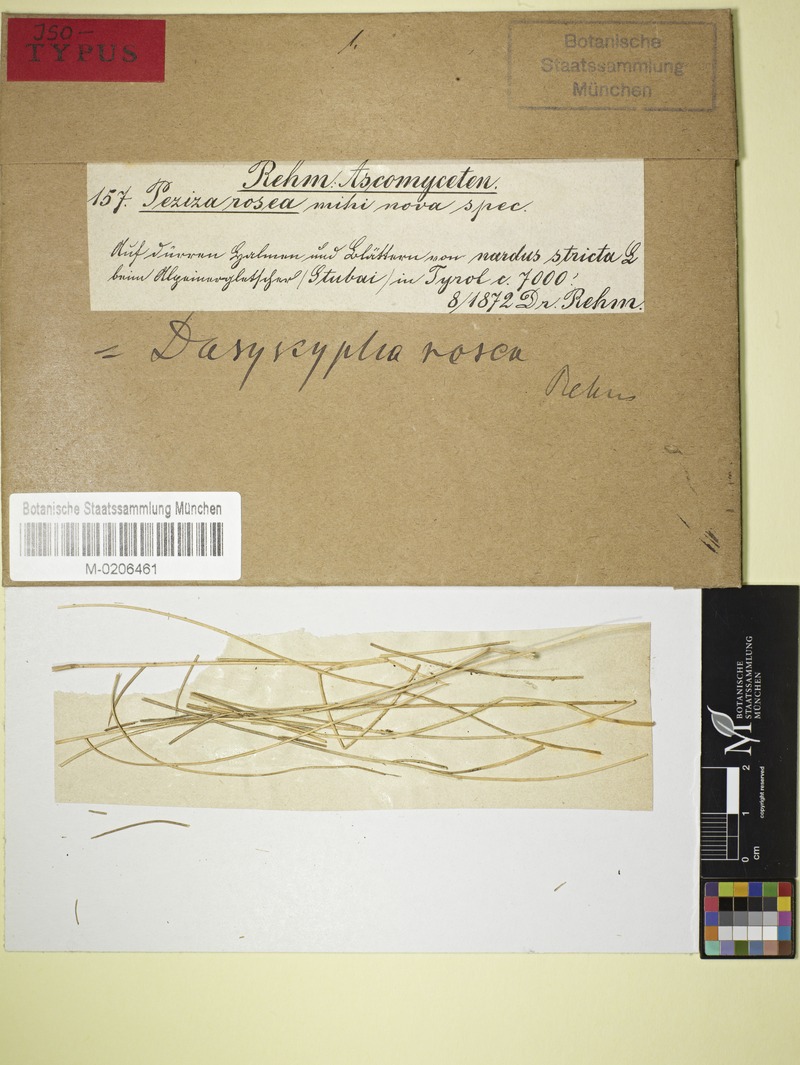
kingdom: Fungi
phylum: Ascomycota
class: Leotiomycetes
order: Helotiales
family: Lachnaceae
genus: Dasyscyphus
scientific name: Dasyscyphus roseus
